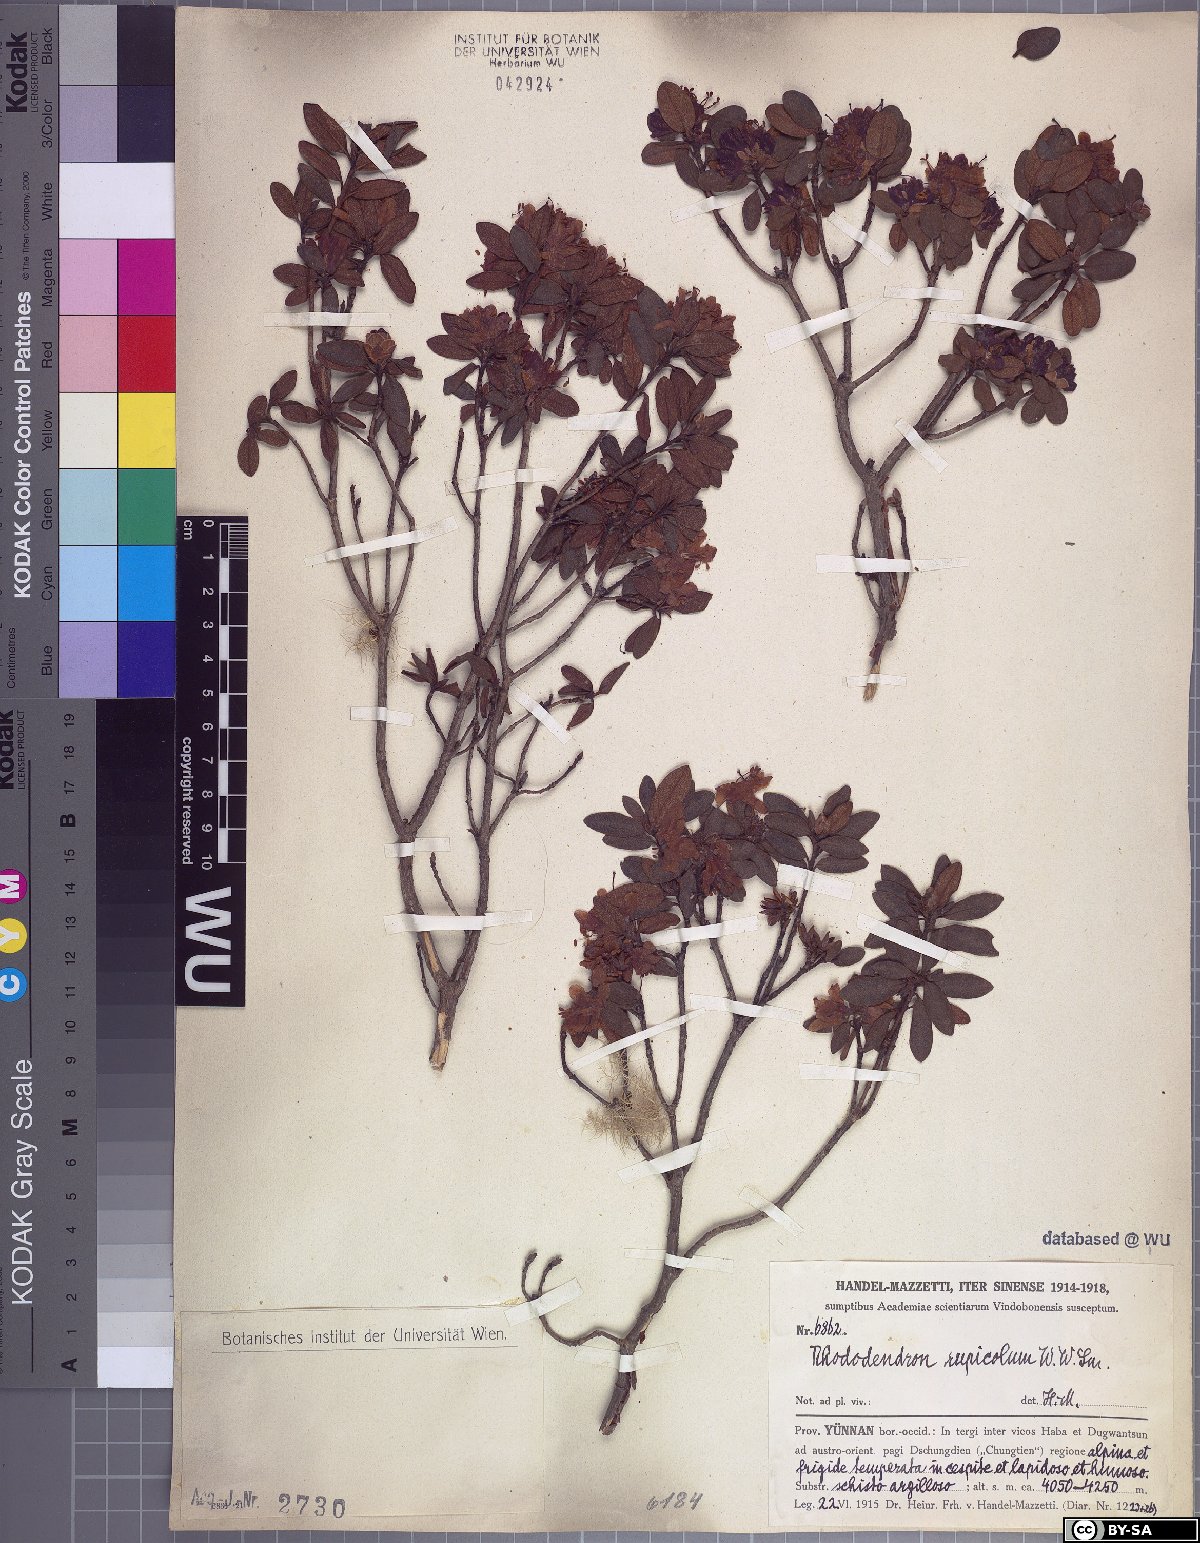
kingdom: Plantae
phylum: Tracheophyta
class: Magnoliopsida
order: Ericales
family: Ericaceae
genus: Rhododendron
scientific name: Rhododendron rupicola
